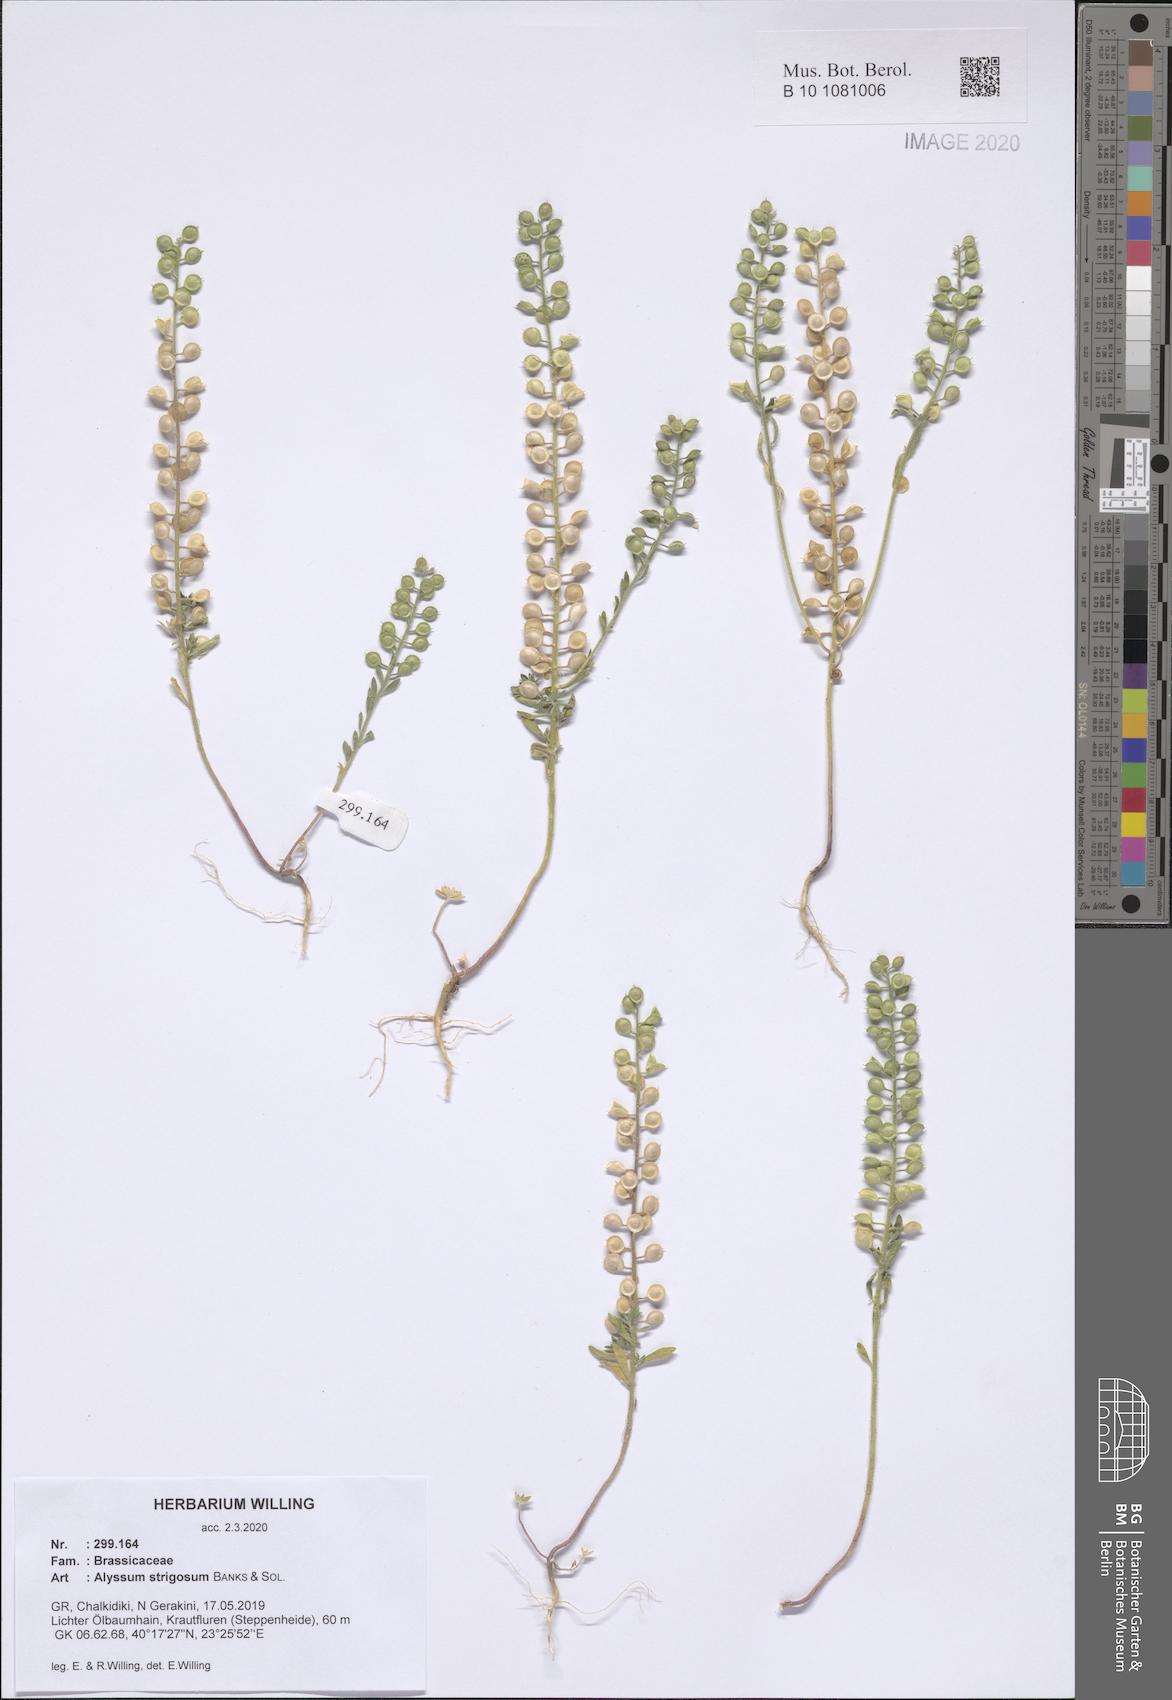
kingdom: Plantae
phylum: Tracheophyta
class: Magnoliopsida
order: Brassicales
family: Brassicaceae
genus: Alyssum
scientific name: Alyssum strigosum
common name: Alyssum
